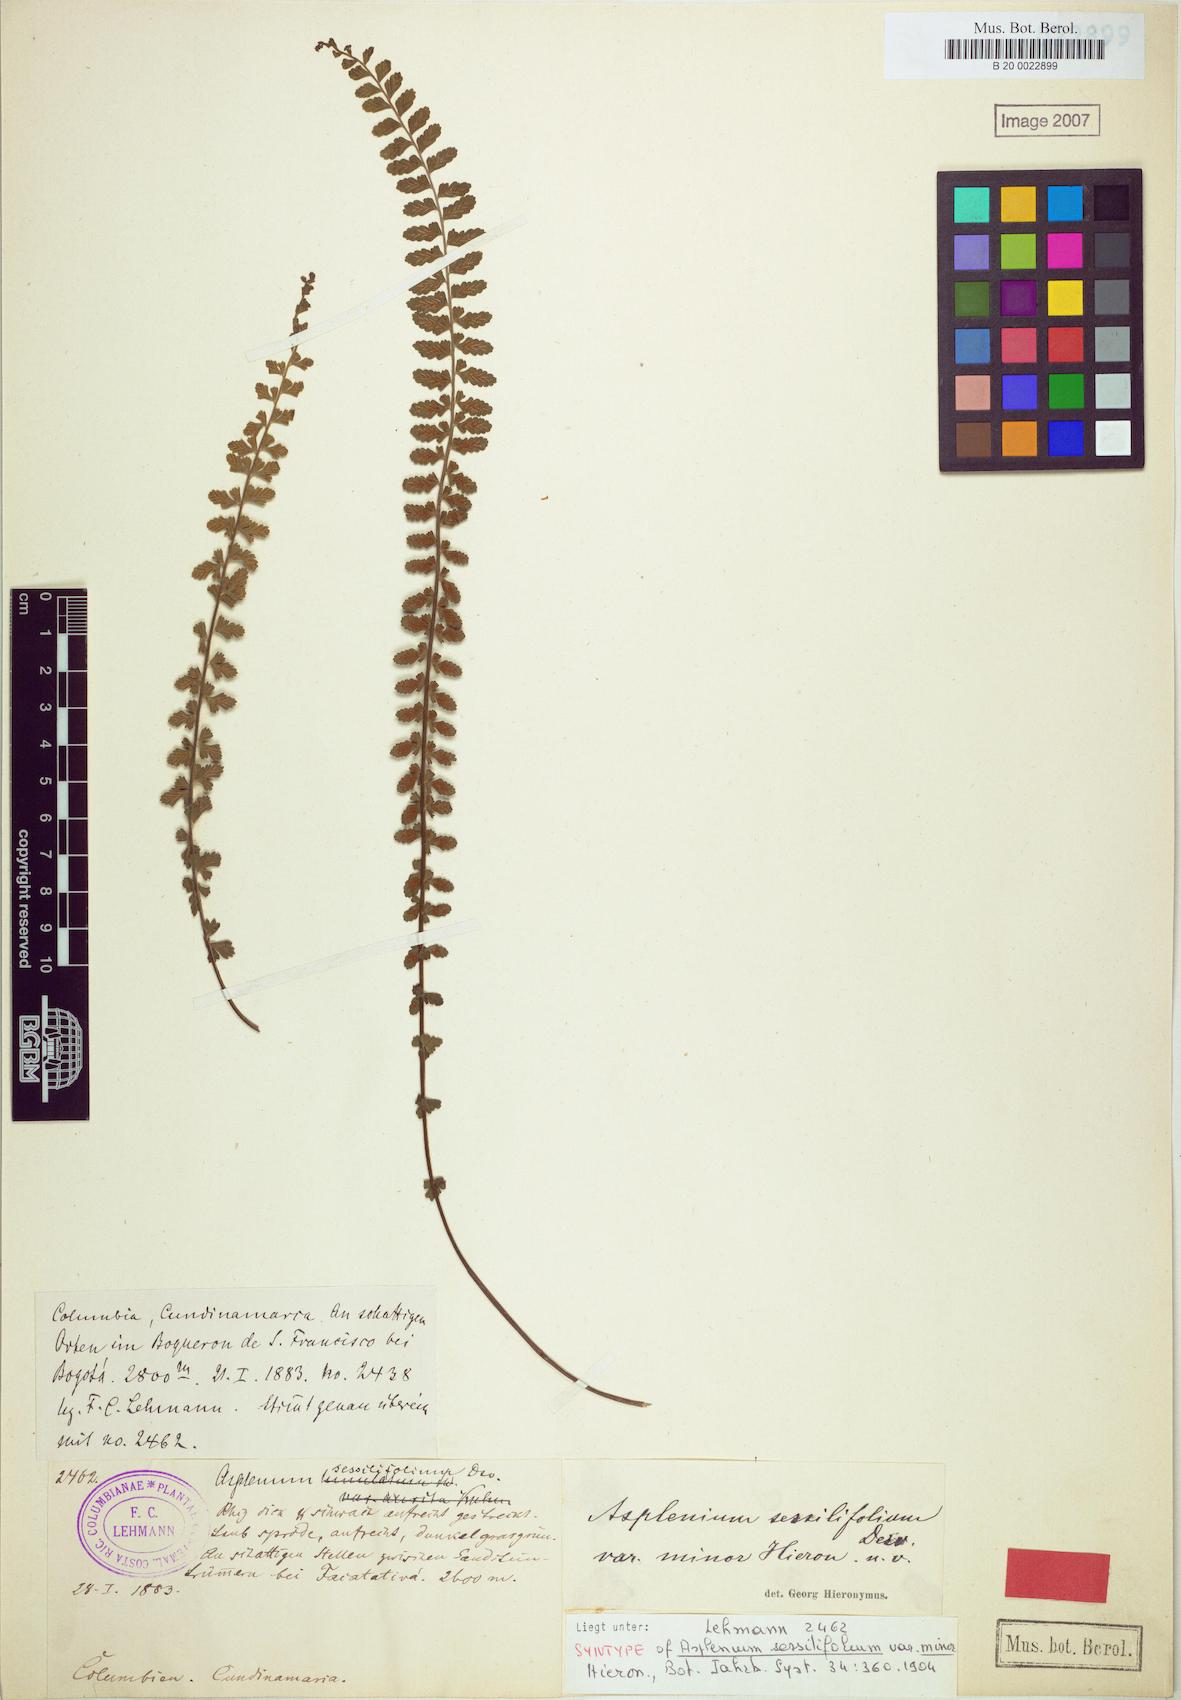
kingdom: Plantae
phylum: Tracheophyta
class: Polypodiopsida
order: Polypodiales
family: Aspleniaceae
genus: Asplenium
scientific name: Asplenium sessilifolium
